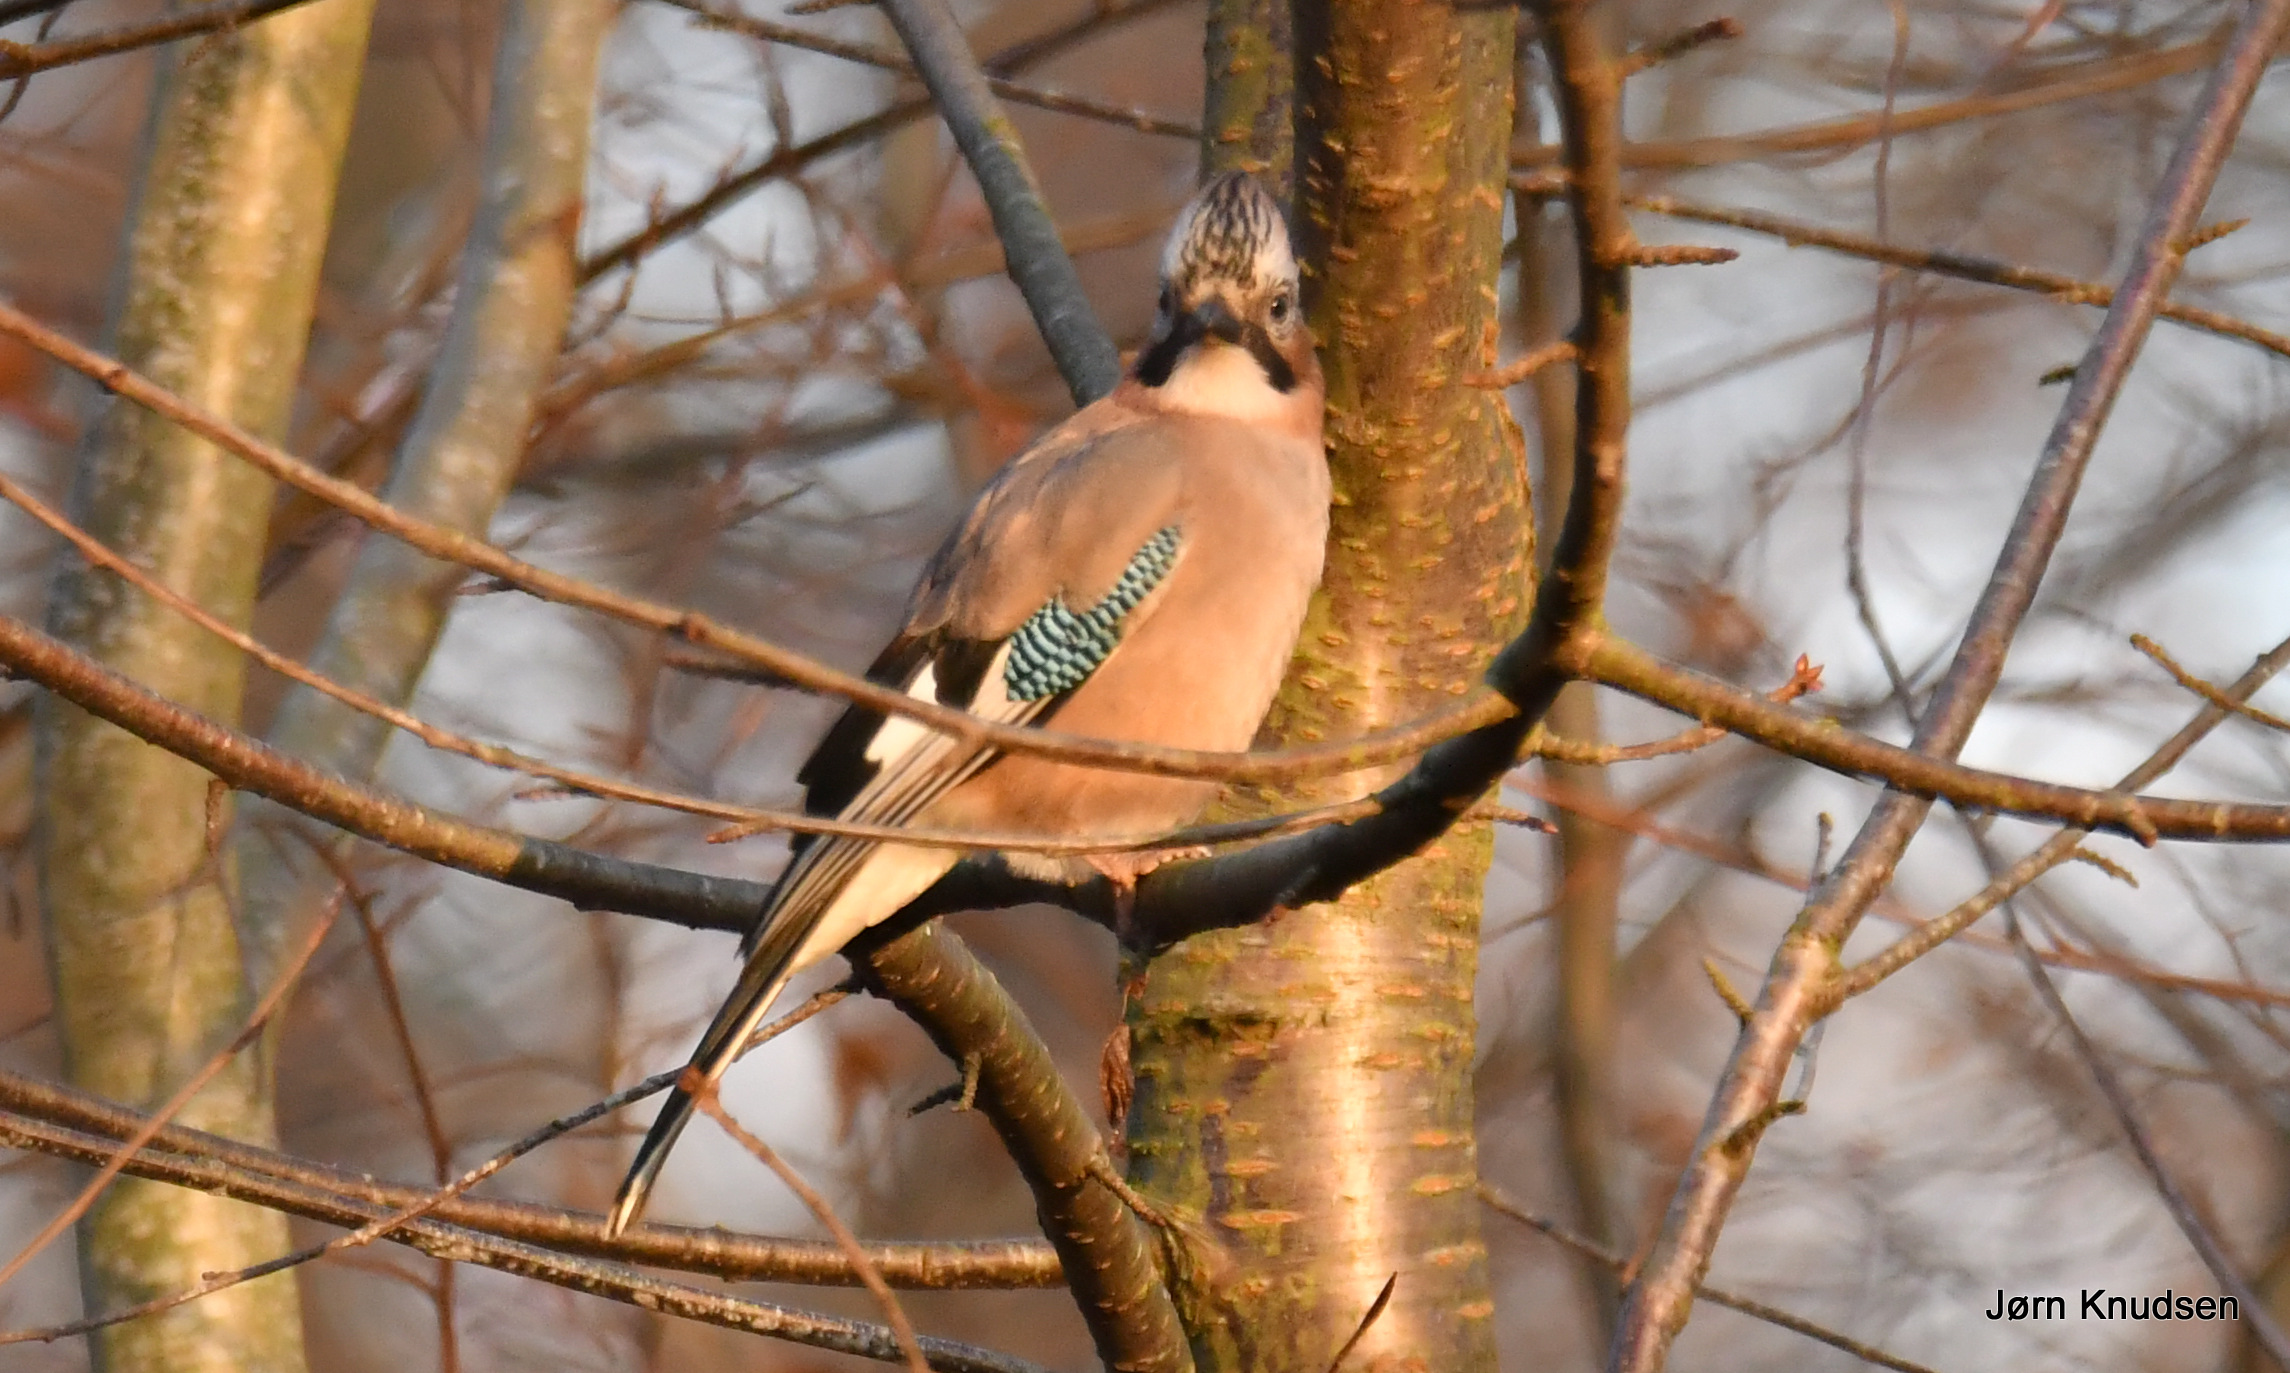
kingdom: Animalia
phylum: Chordata
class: Aves
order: Passeriformes
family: Corvidae
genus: Garrulus
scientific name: Garrulus glandarius
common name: Skovskade
